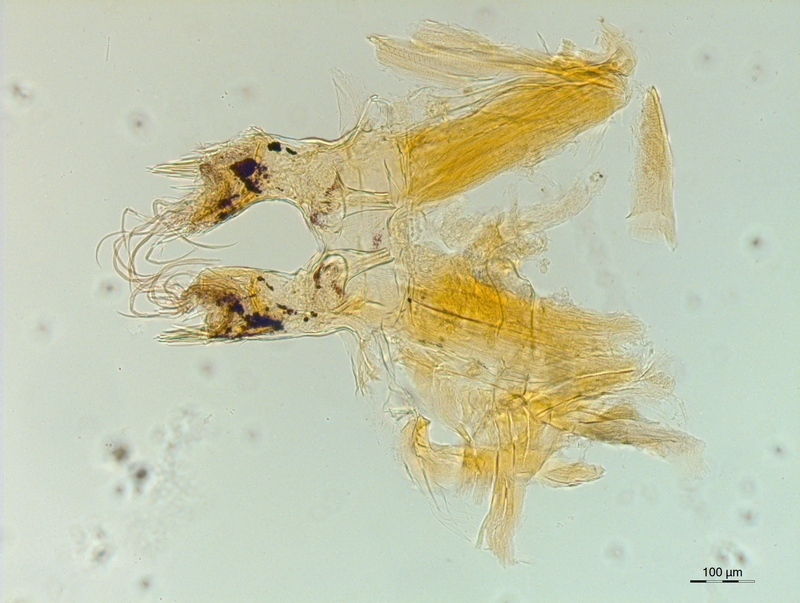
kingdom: Animalia
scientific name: Animalia
